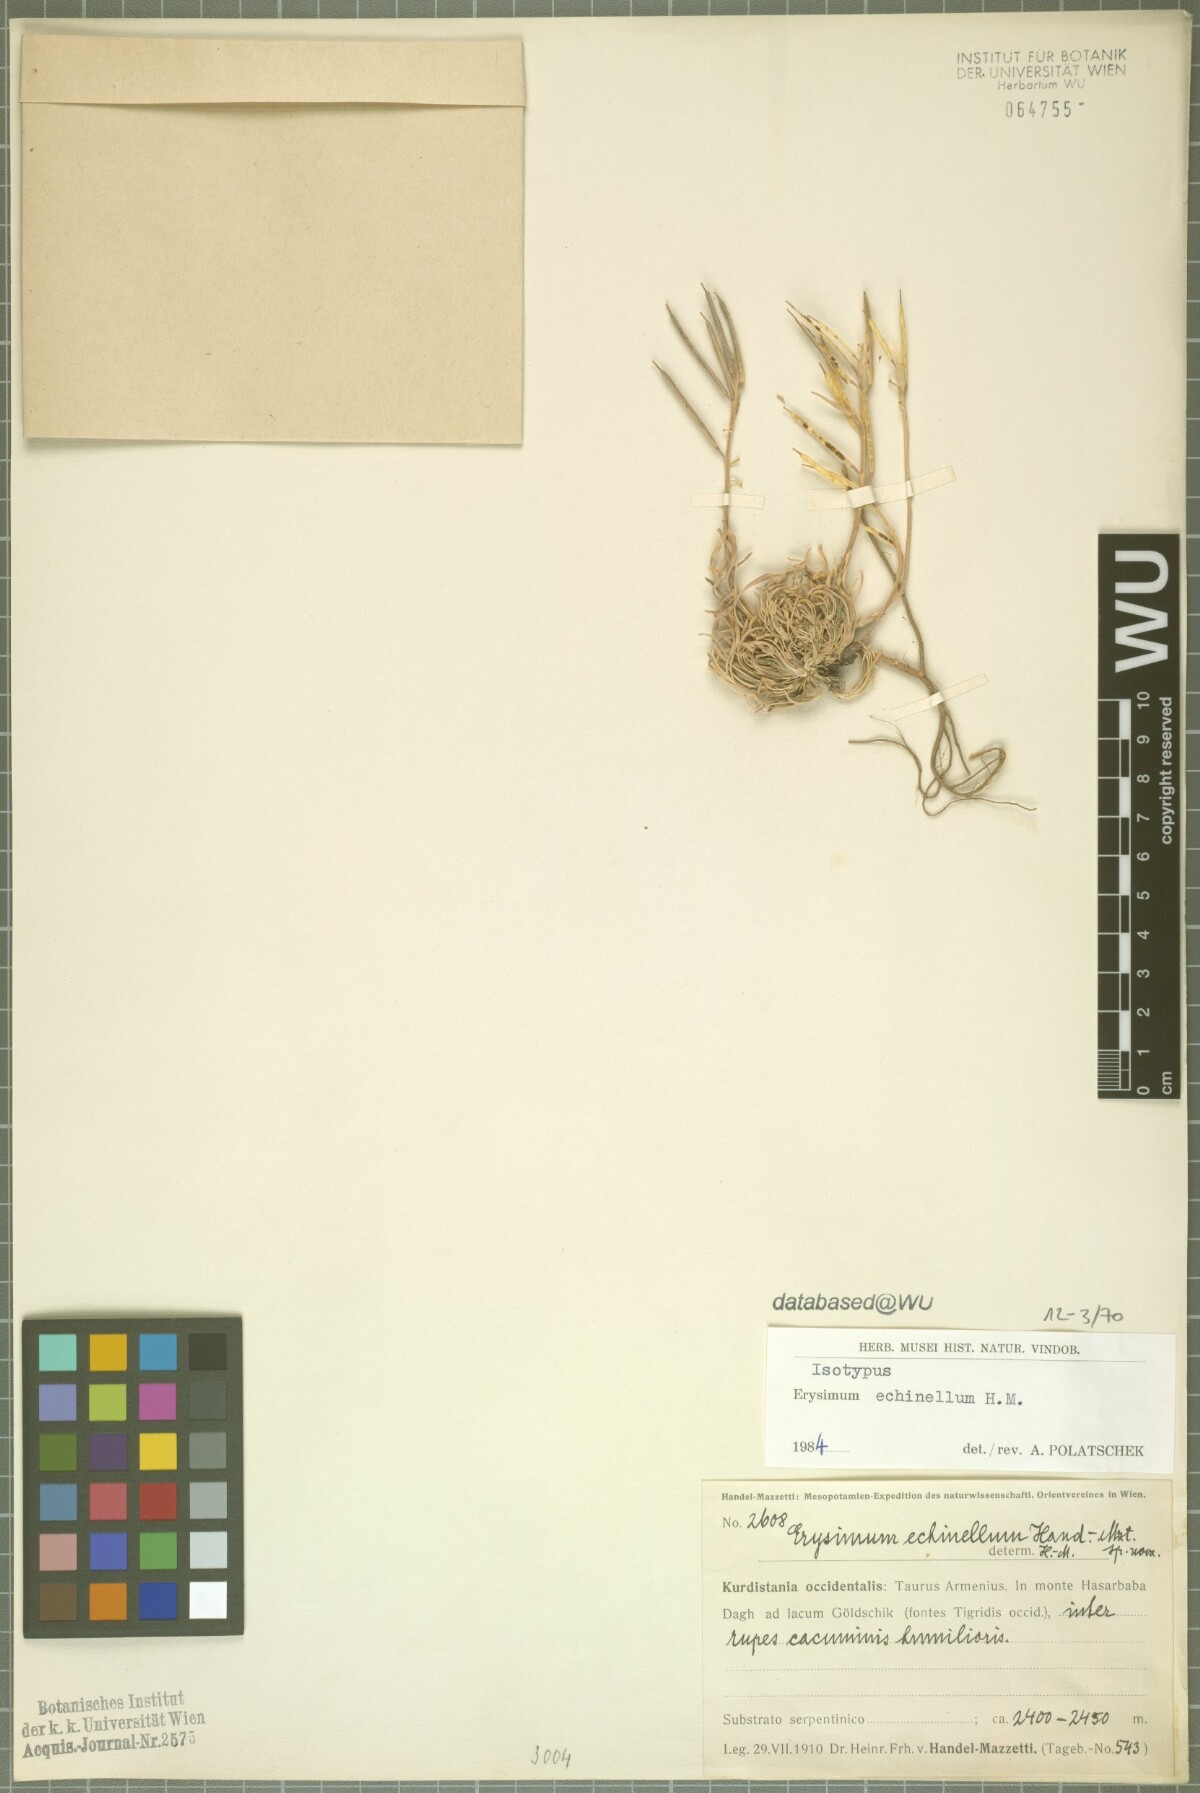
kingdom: Plantae
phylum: Tracheophyta
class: Magnoliopsida
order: Brassicales
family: Brassicaceae
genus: Erysimum
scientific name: Erysimum echinellum
